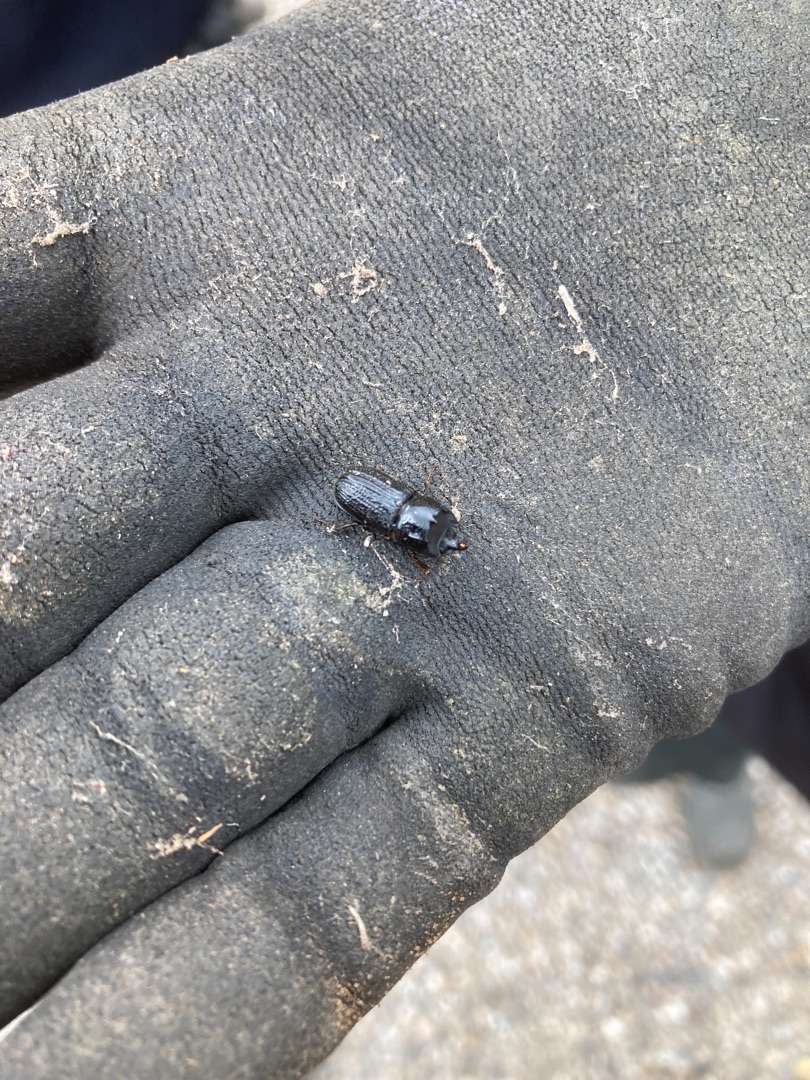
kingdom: Animalia
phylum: Arthropoda
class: Insecta
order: Coleoptera
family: Lucanidae
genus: Sinodendron
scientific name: Sinodendron cylindricum
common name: Valsehjort
